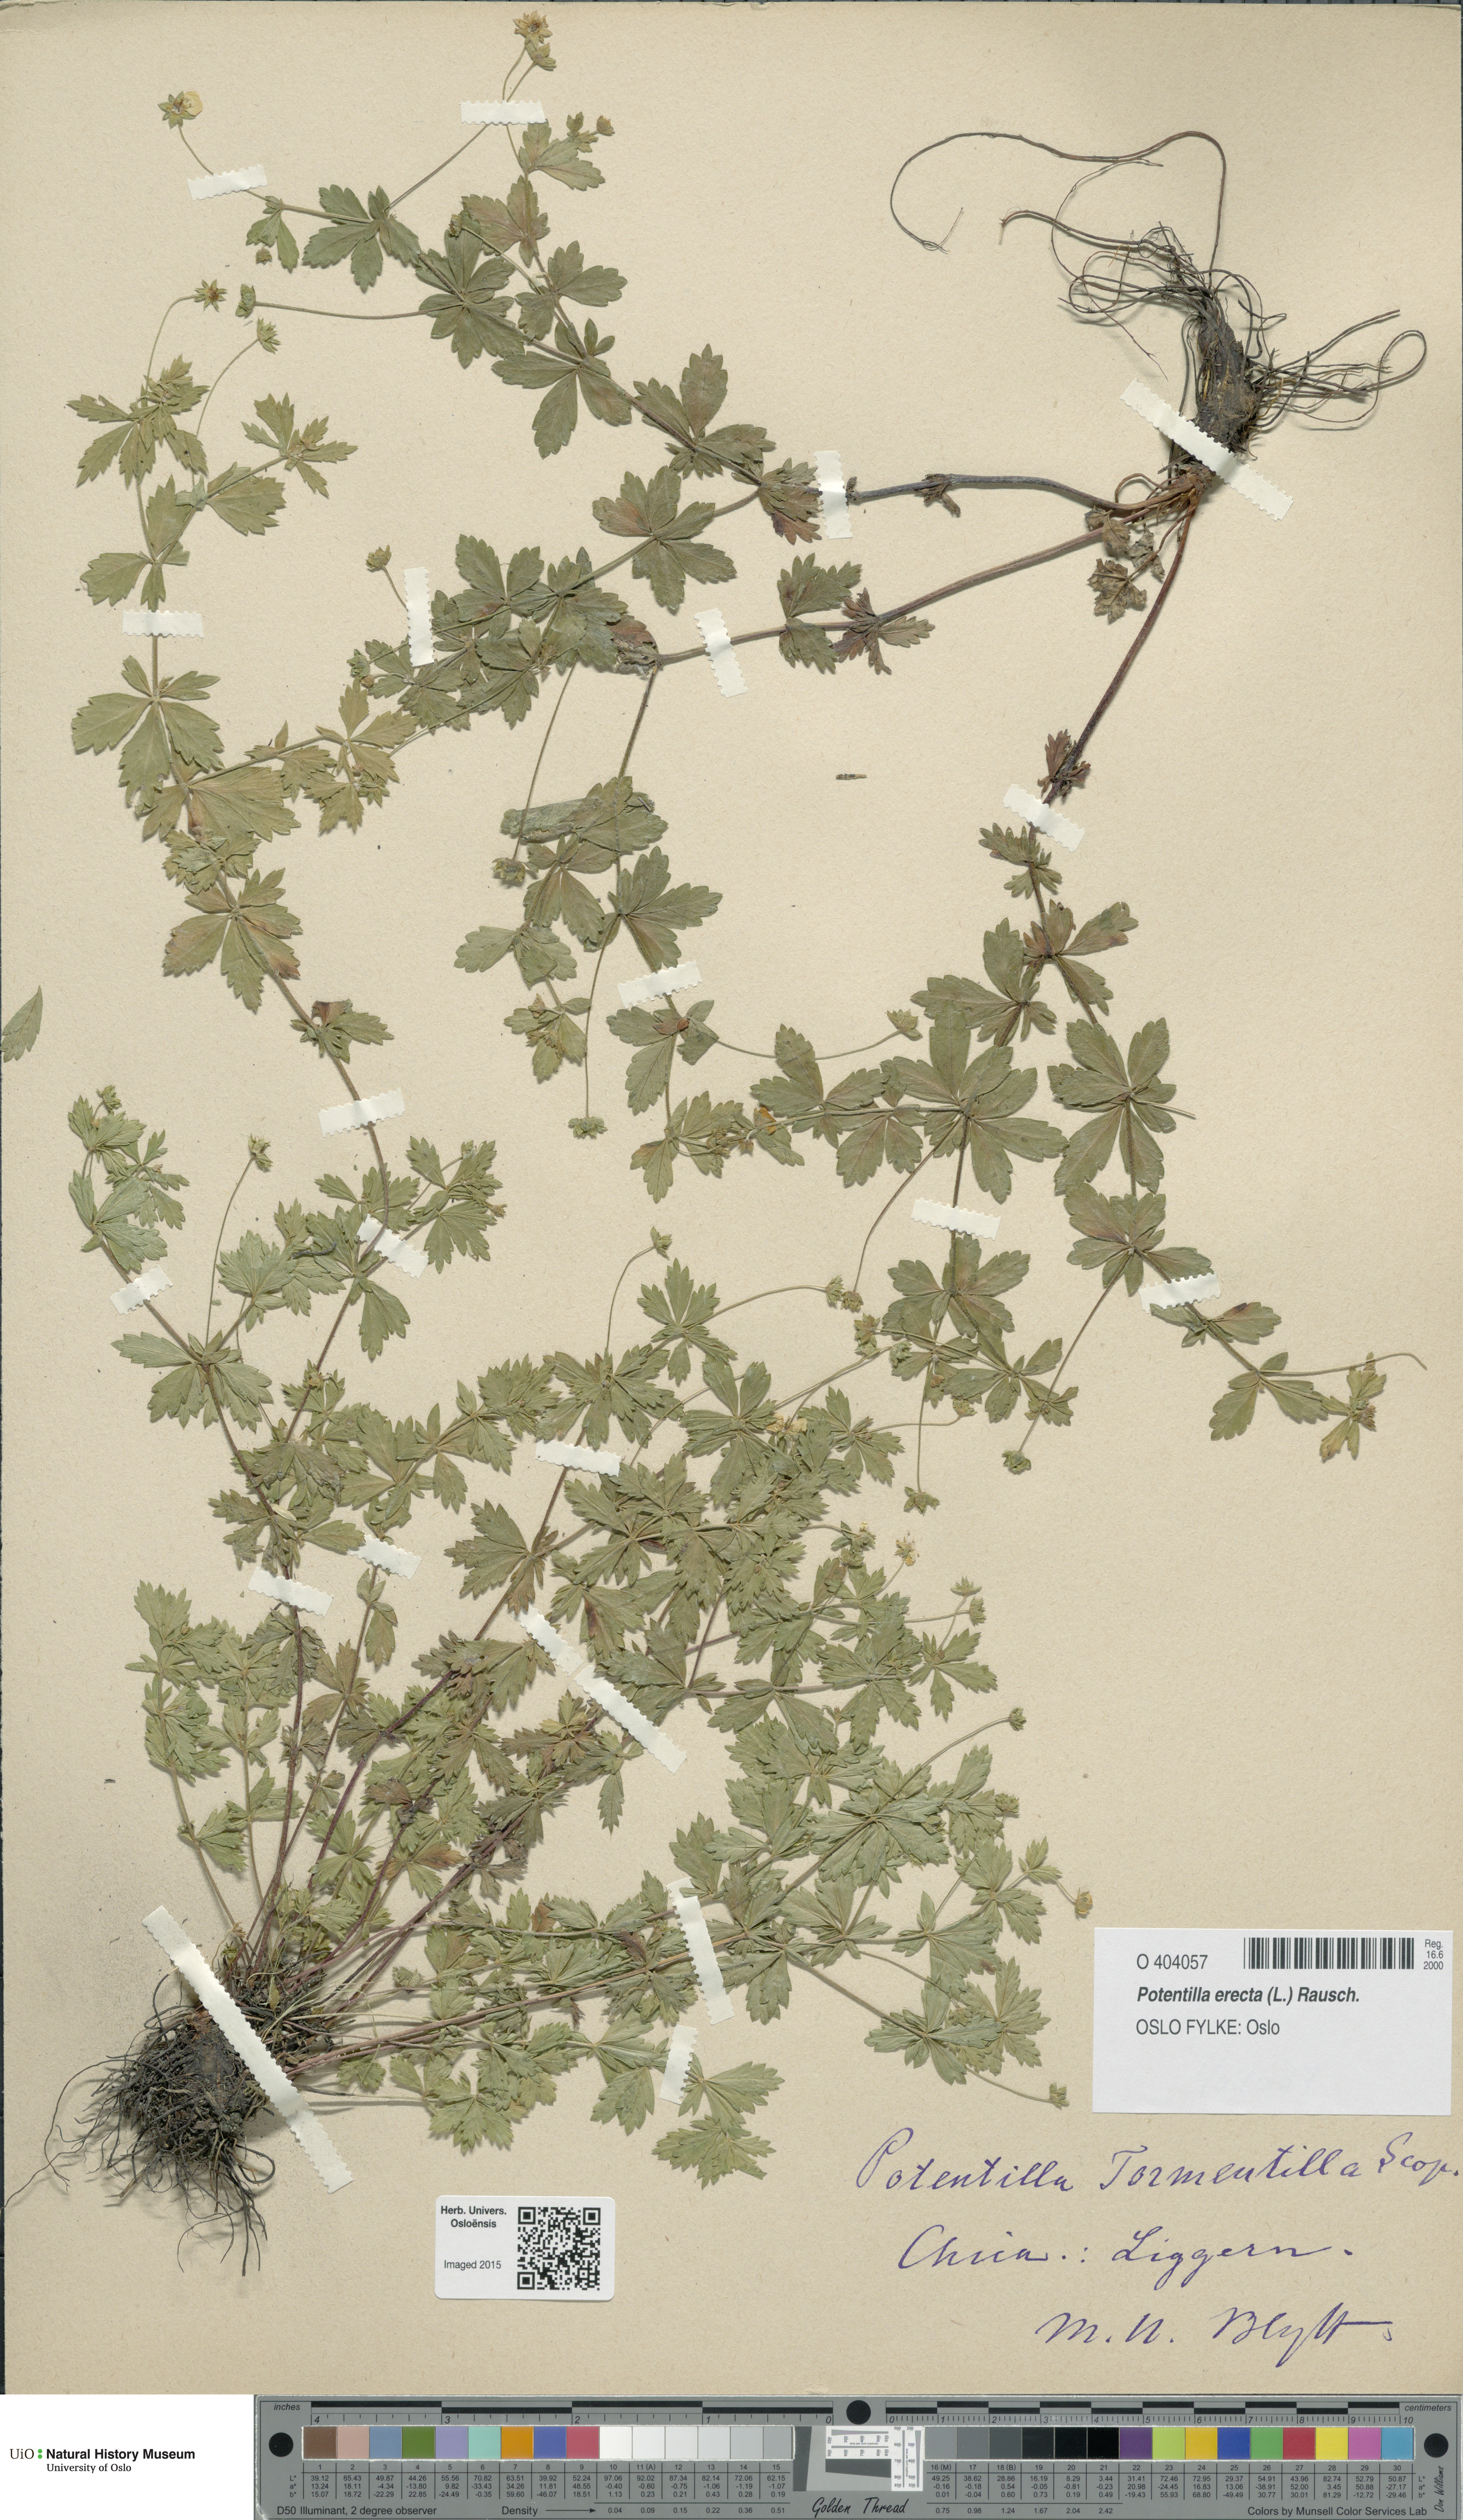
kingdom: Plantae
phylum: Tracheophyta
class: Magnoliopsida
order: Rosales
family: Rosaceae
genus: Potentilla
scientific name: Potentilla erecta
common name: Tormentil
